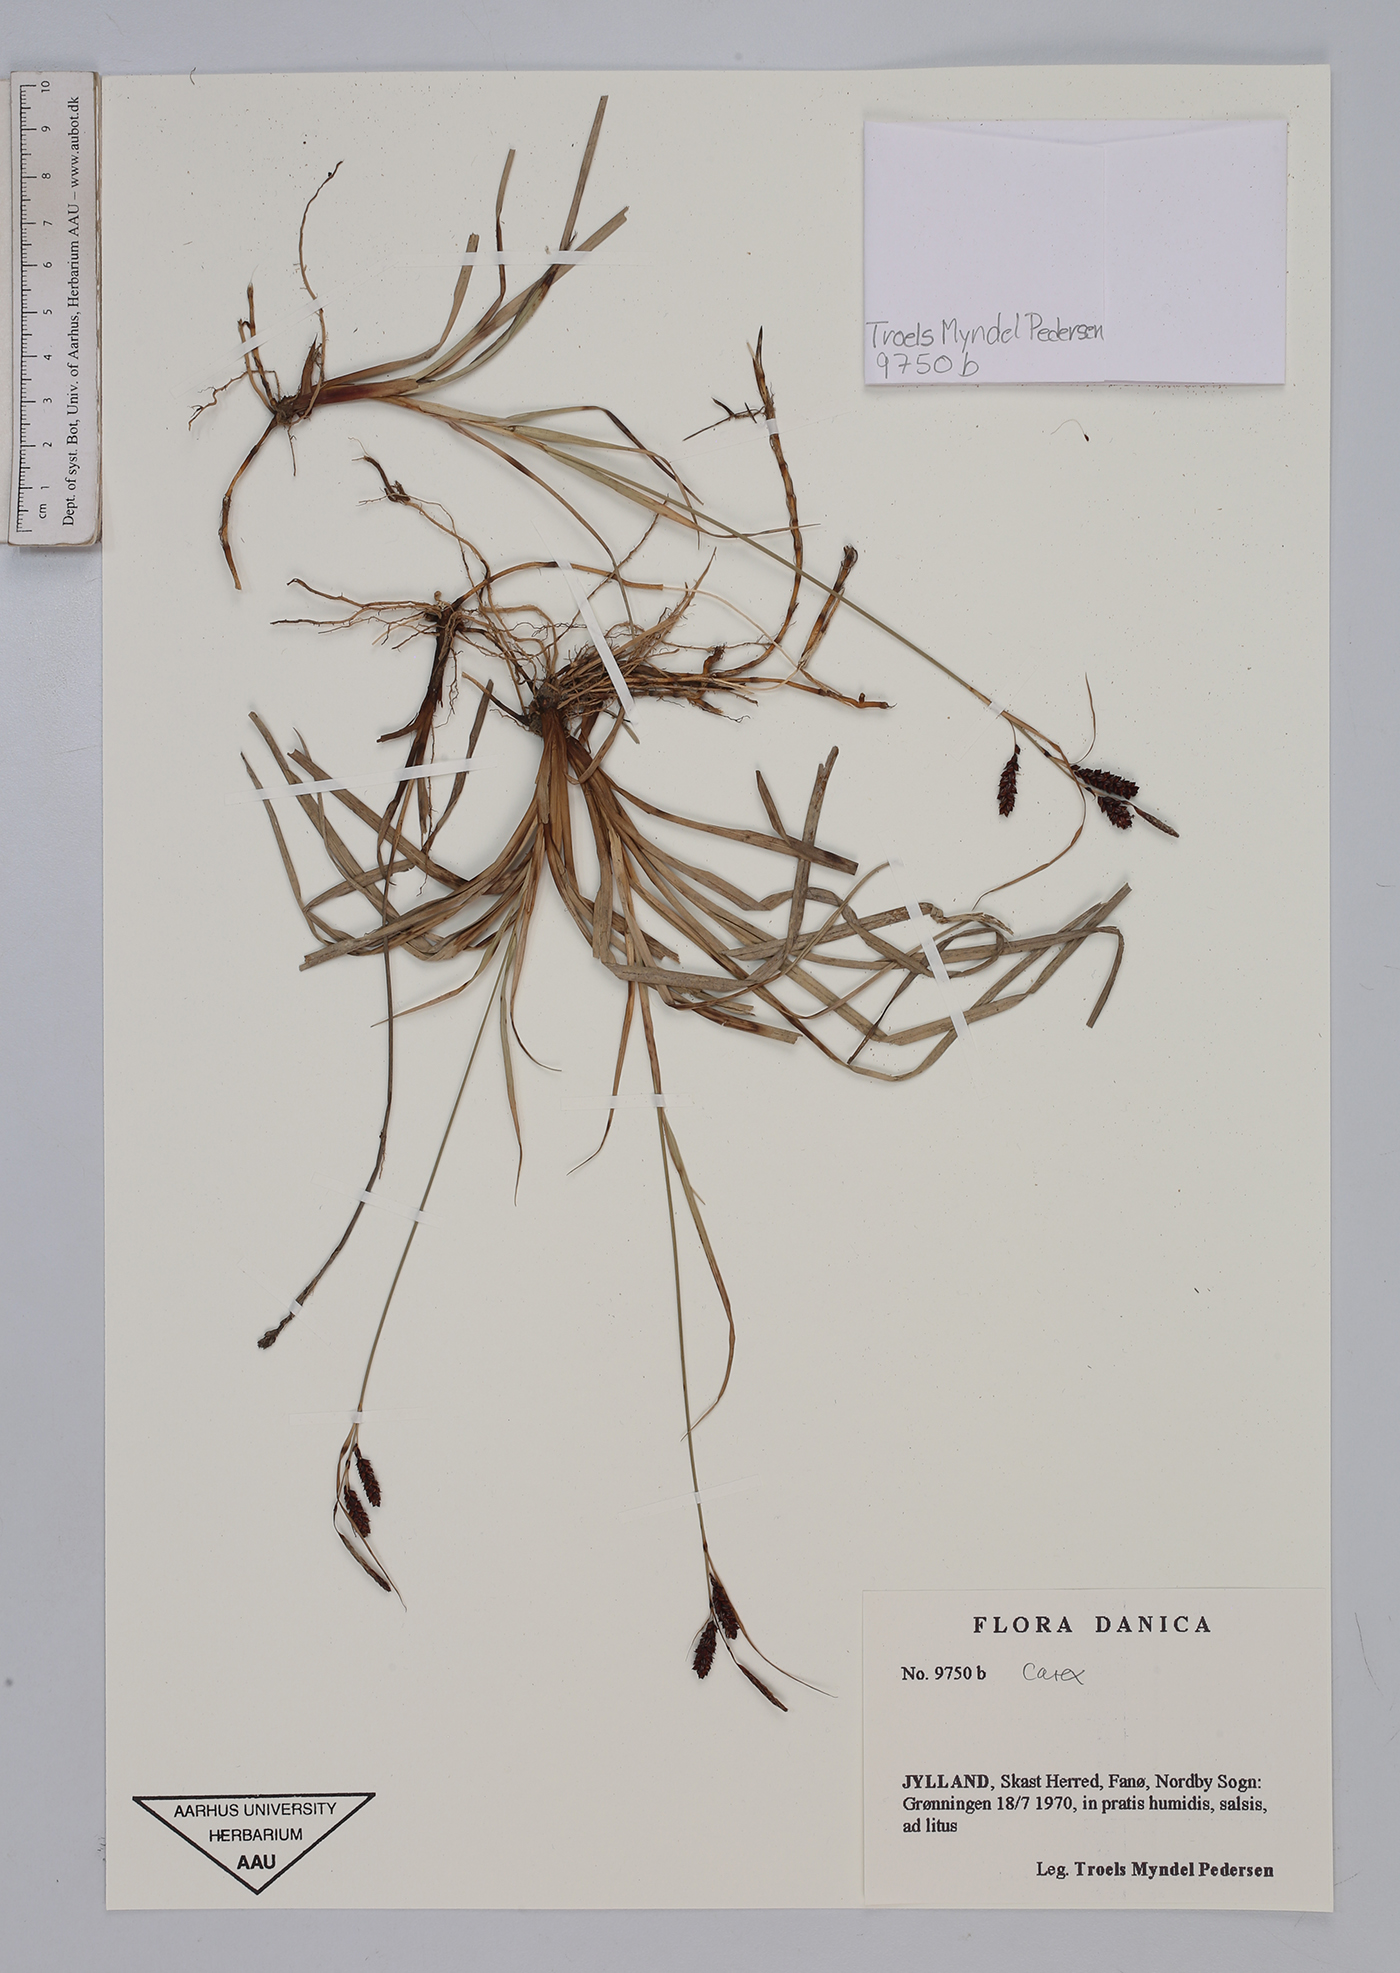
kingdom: Plantae
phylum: Tracheophyta
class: Liliopsida
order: Poales
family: Cyperaceae
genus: Carex
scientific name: Carex
